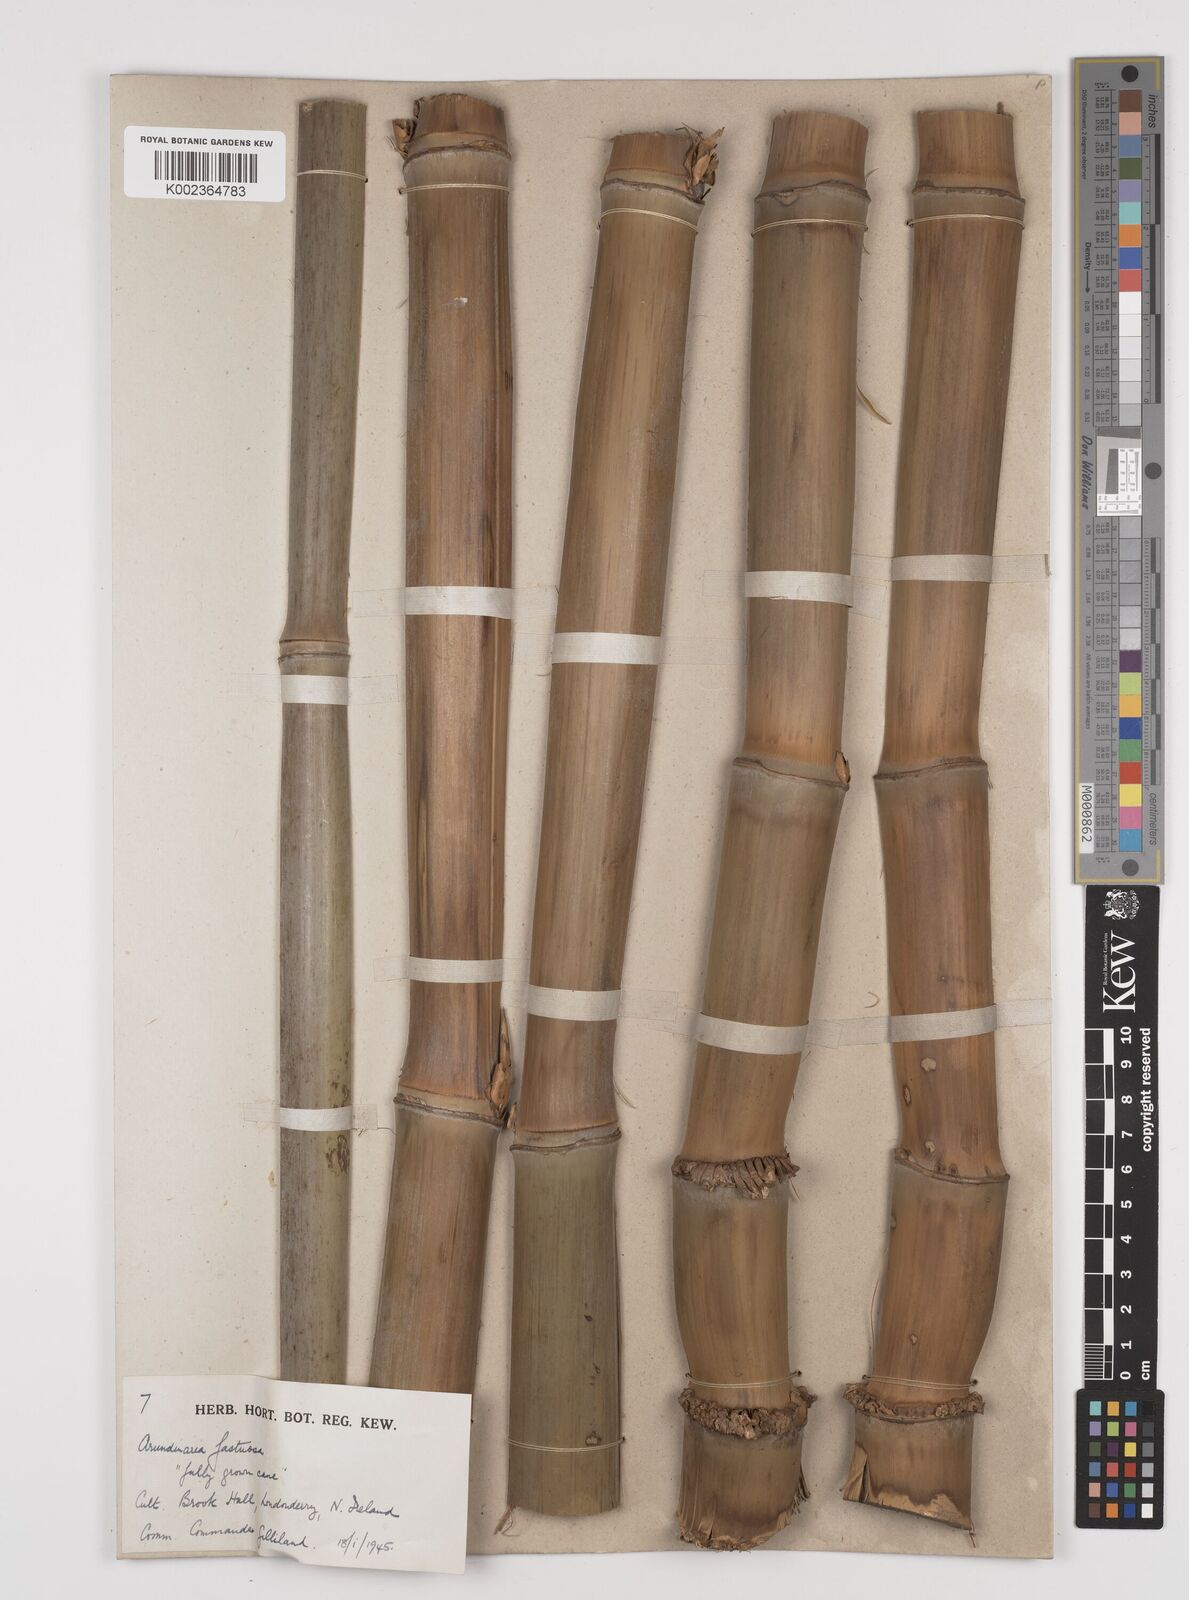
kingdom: Plantae
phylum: Tracheophyta
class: Liliopsida
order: Poales
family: Poaceae
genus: Semiarundinaria
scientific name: Semiarundinaria
